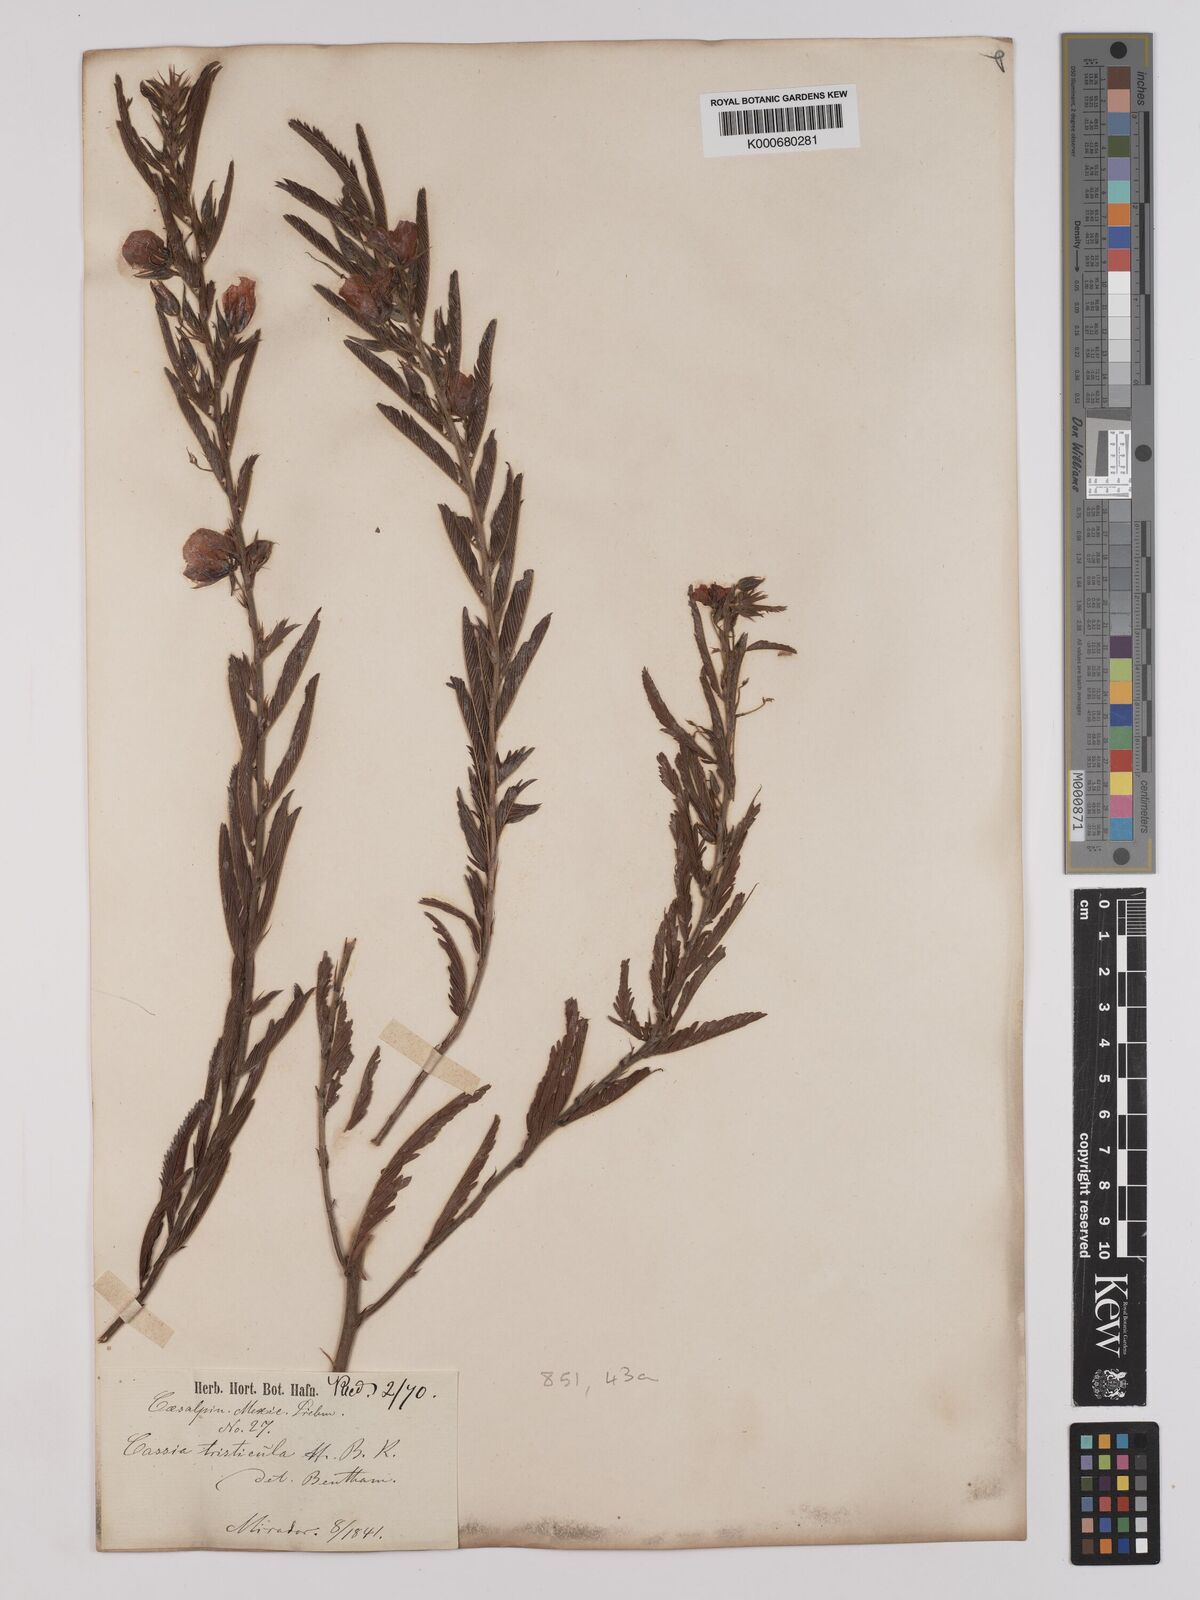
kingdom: Plantae
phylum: Tracheophyta
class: Magnoliopsida
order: Fabales
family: Fabaceae
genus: Chamaecrista
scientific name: Chamaecrista glandulosa
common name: Wild peas
